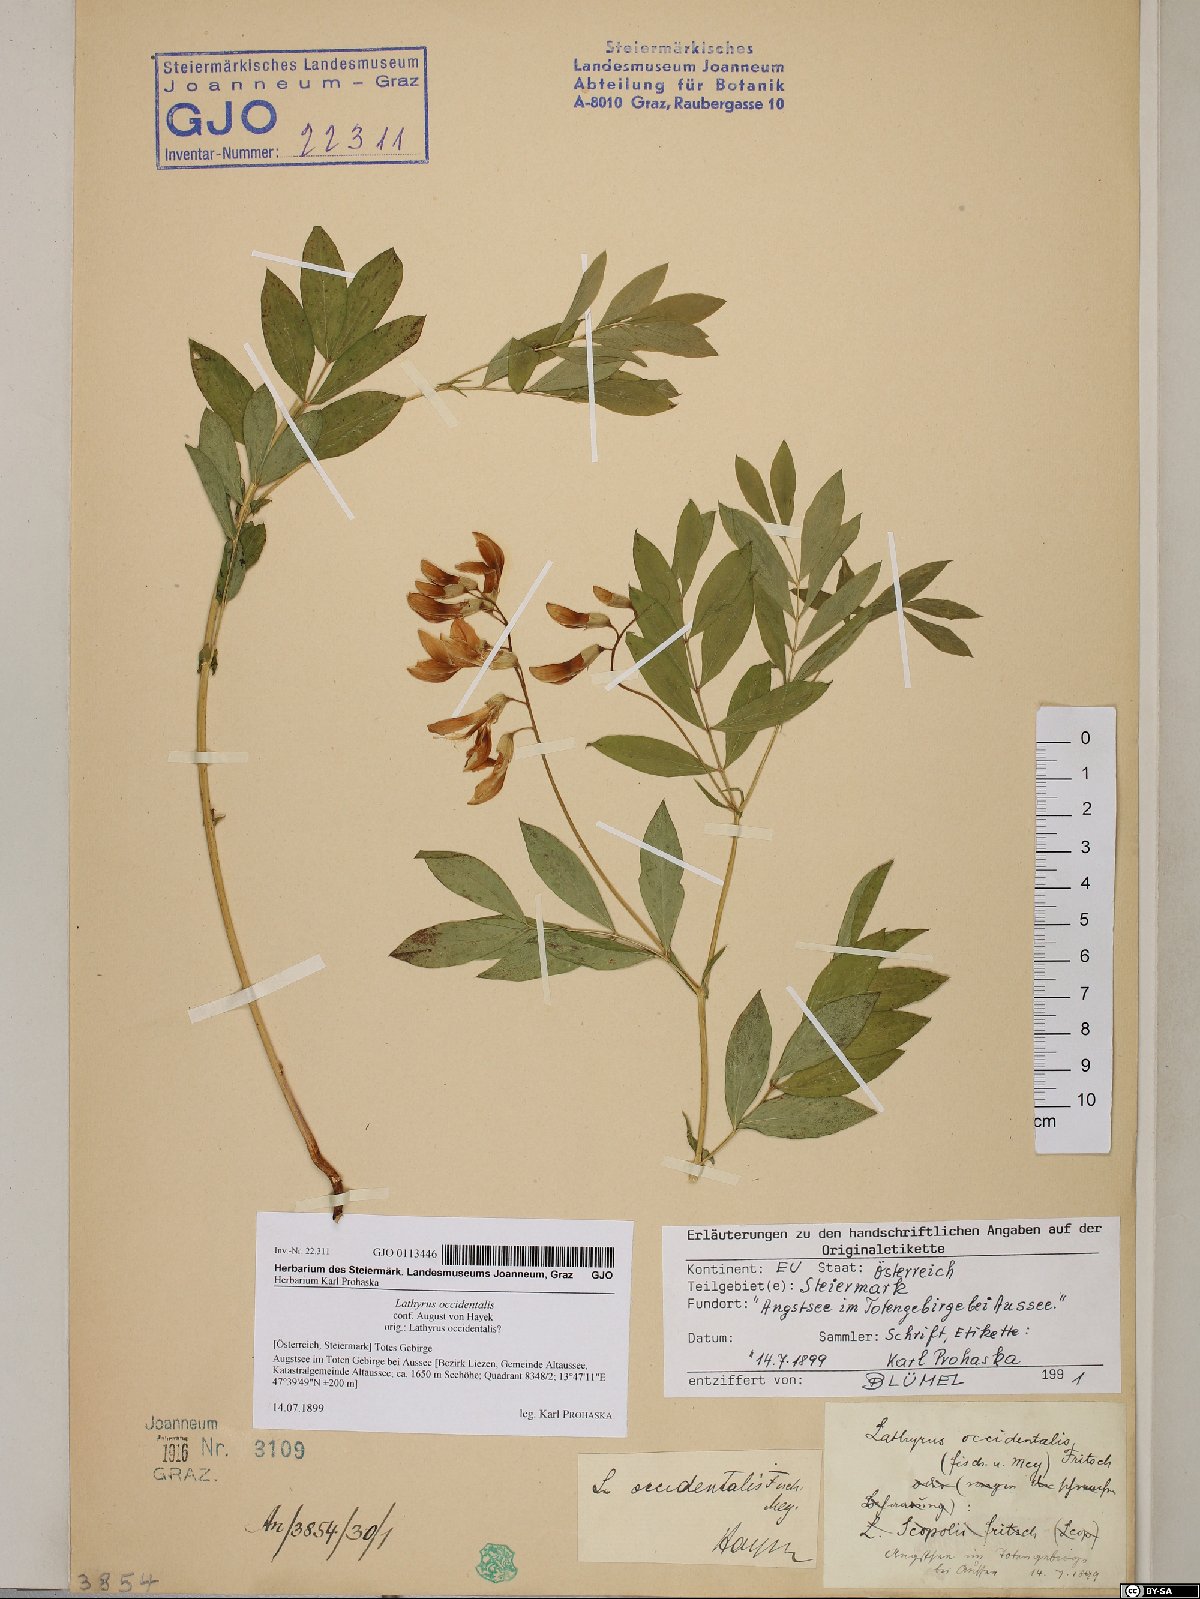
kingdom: Plantae
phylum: Tracheophyta
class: Magnoliopsida
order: Fabales
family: Fabaceae
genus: Lathyrus
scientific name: Lathyrus laevigatus
